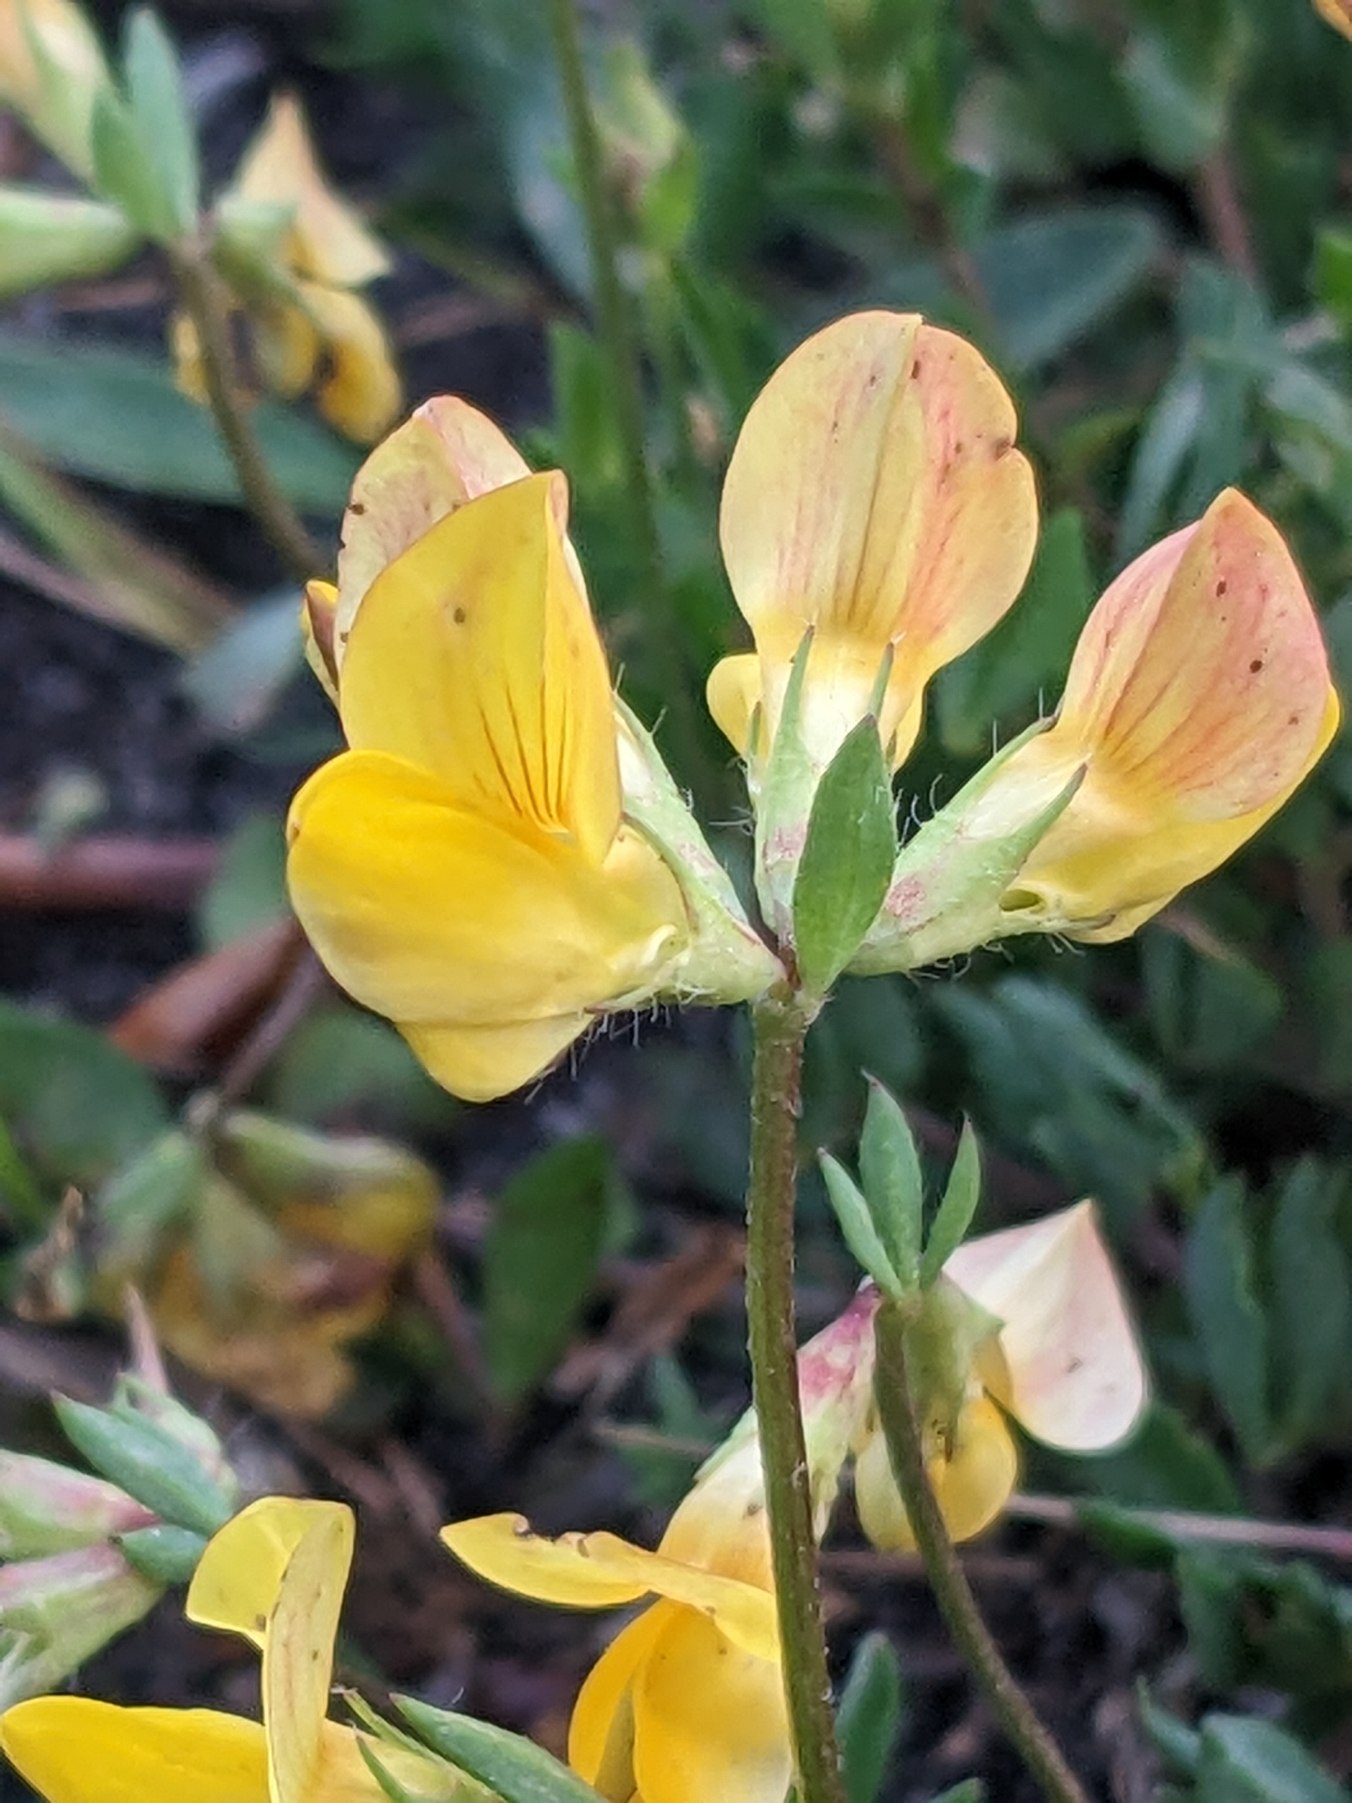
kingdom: Plantae
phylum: Tracheophyta
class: Magnoliopsida
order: Fabales
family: Fabaceae
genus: Lotus
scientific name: Lotus corniculatus
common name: Almindelig kællingetand
